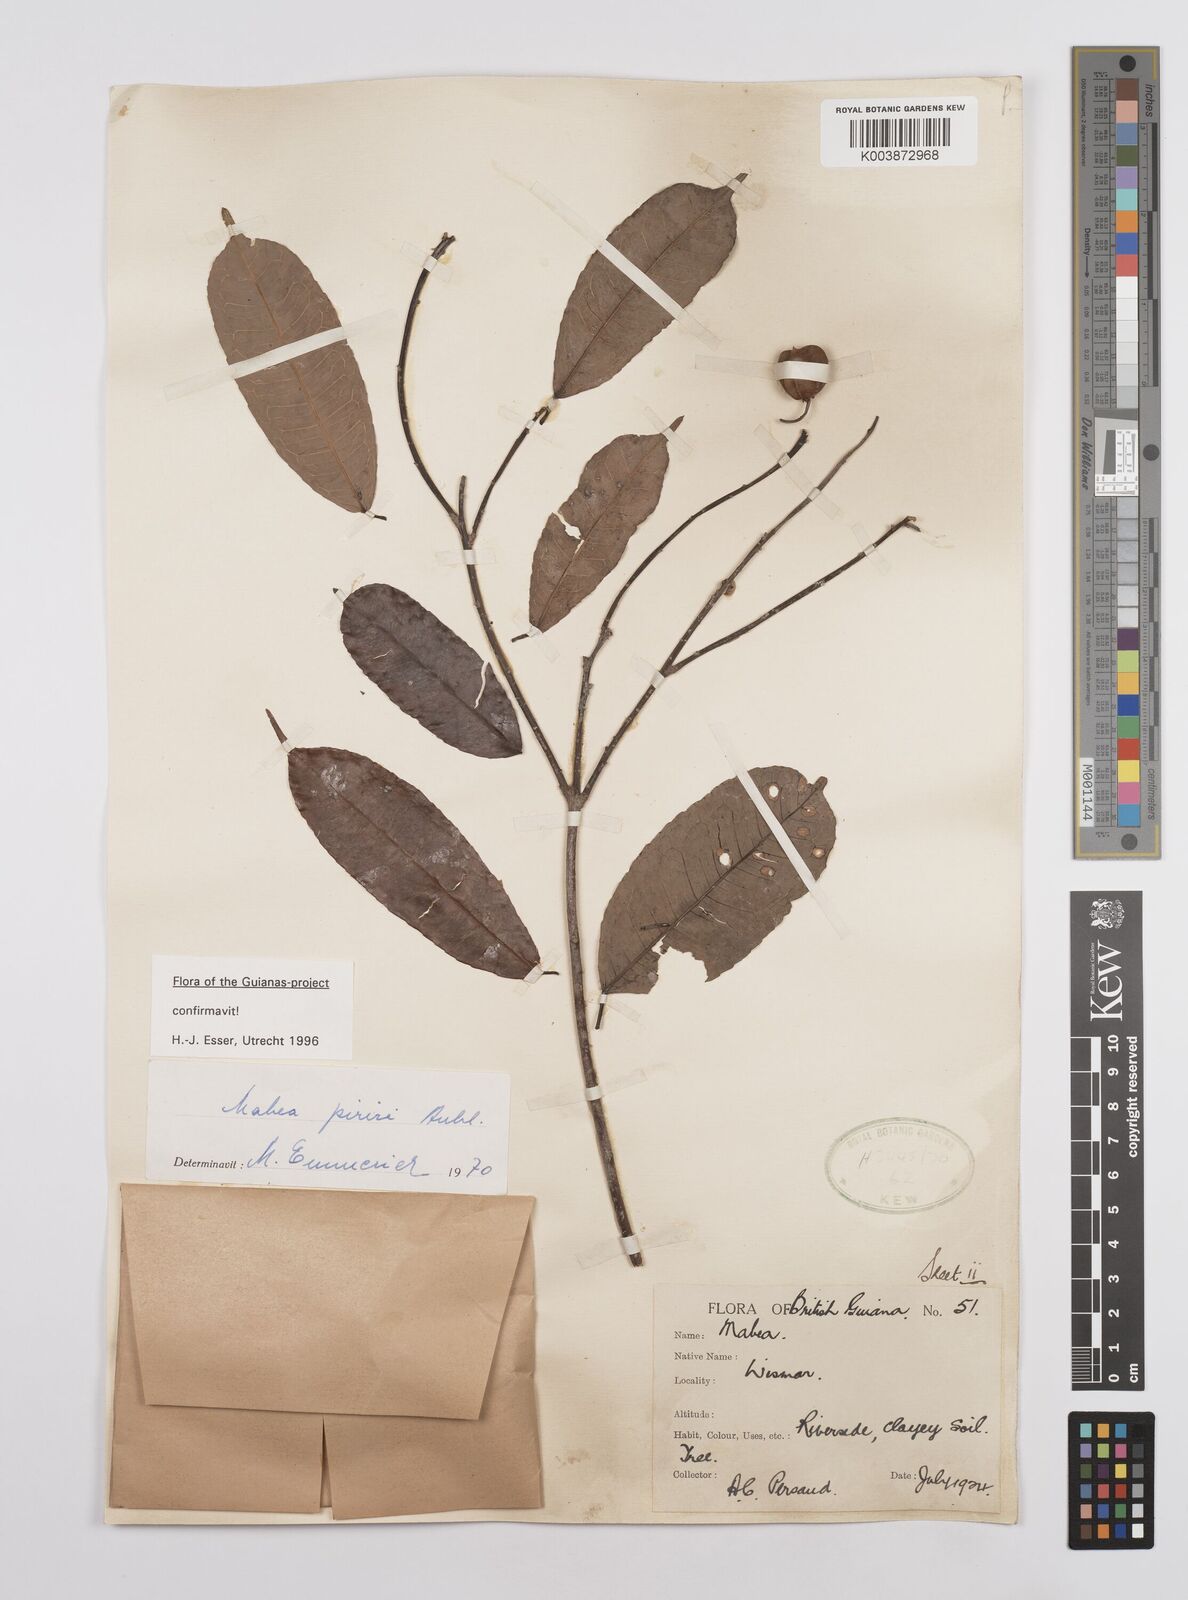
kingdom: Plantae
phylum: Tracheophyta
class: Magnoliopsida
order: Malpighiales
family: Euphorbiaceae
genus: Mabea
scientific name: Mabea piriri
